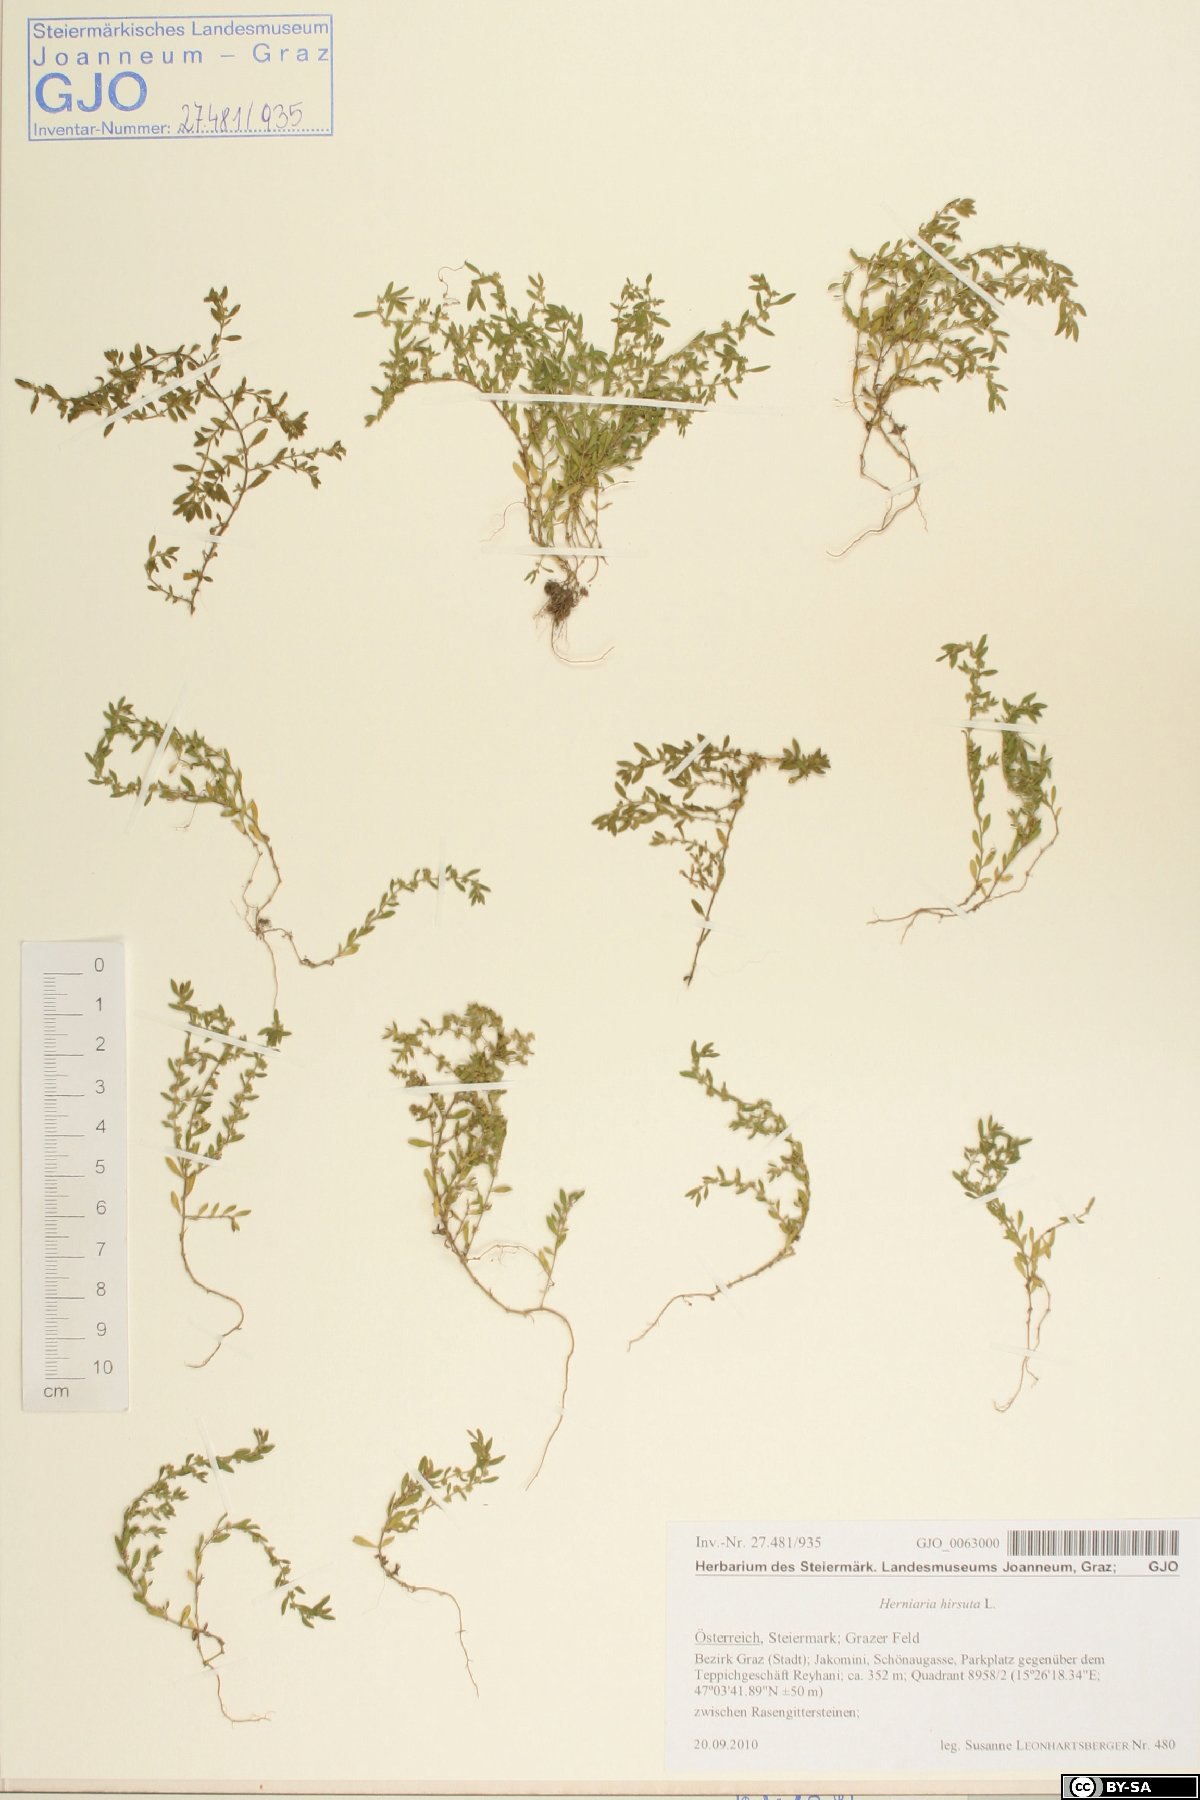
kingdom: Plantae
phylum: Tracheophyta
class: Magnoliopsida
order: Caryophyllales
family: Caryophyllaceae
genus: Herniaria
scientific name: Herniaria hirsuta
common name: Hairy rupturewort
